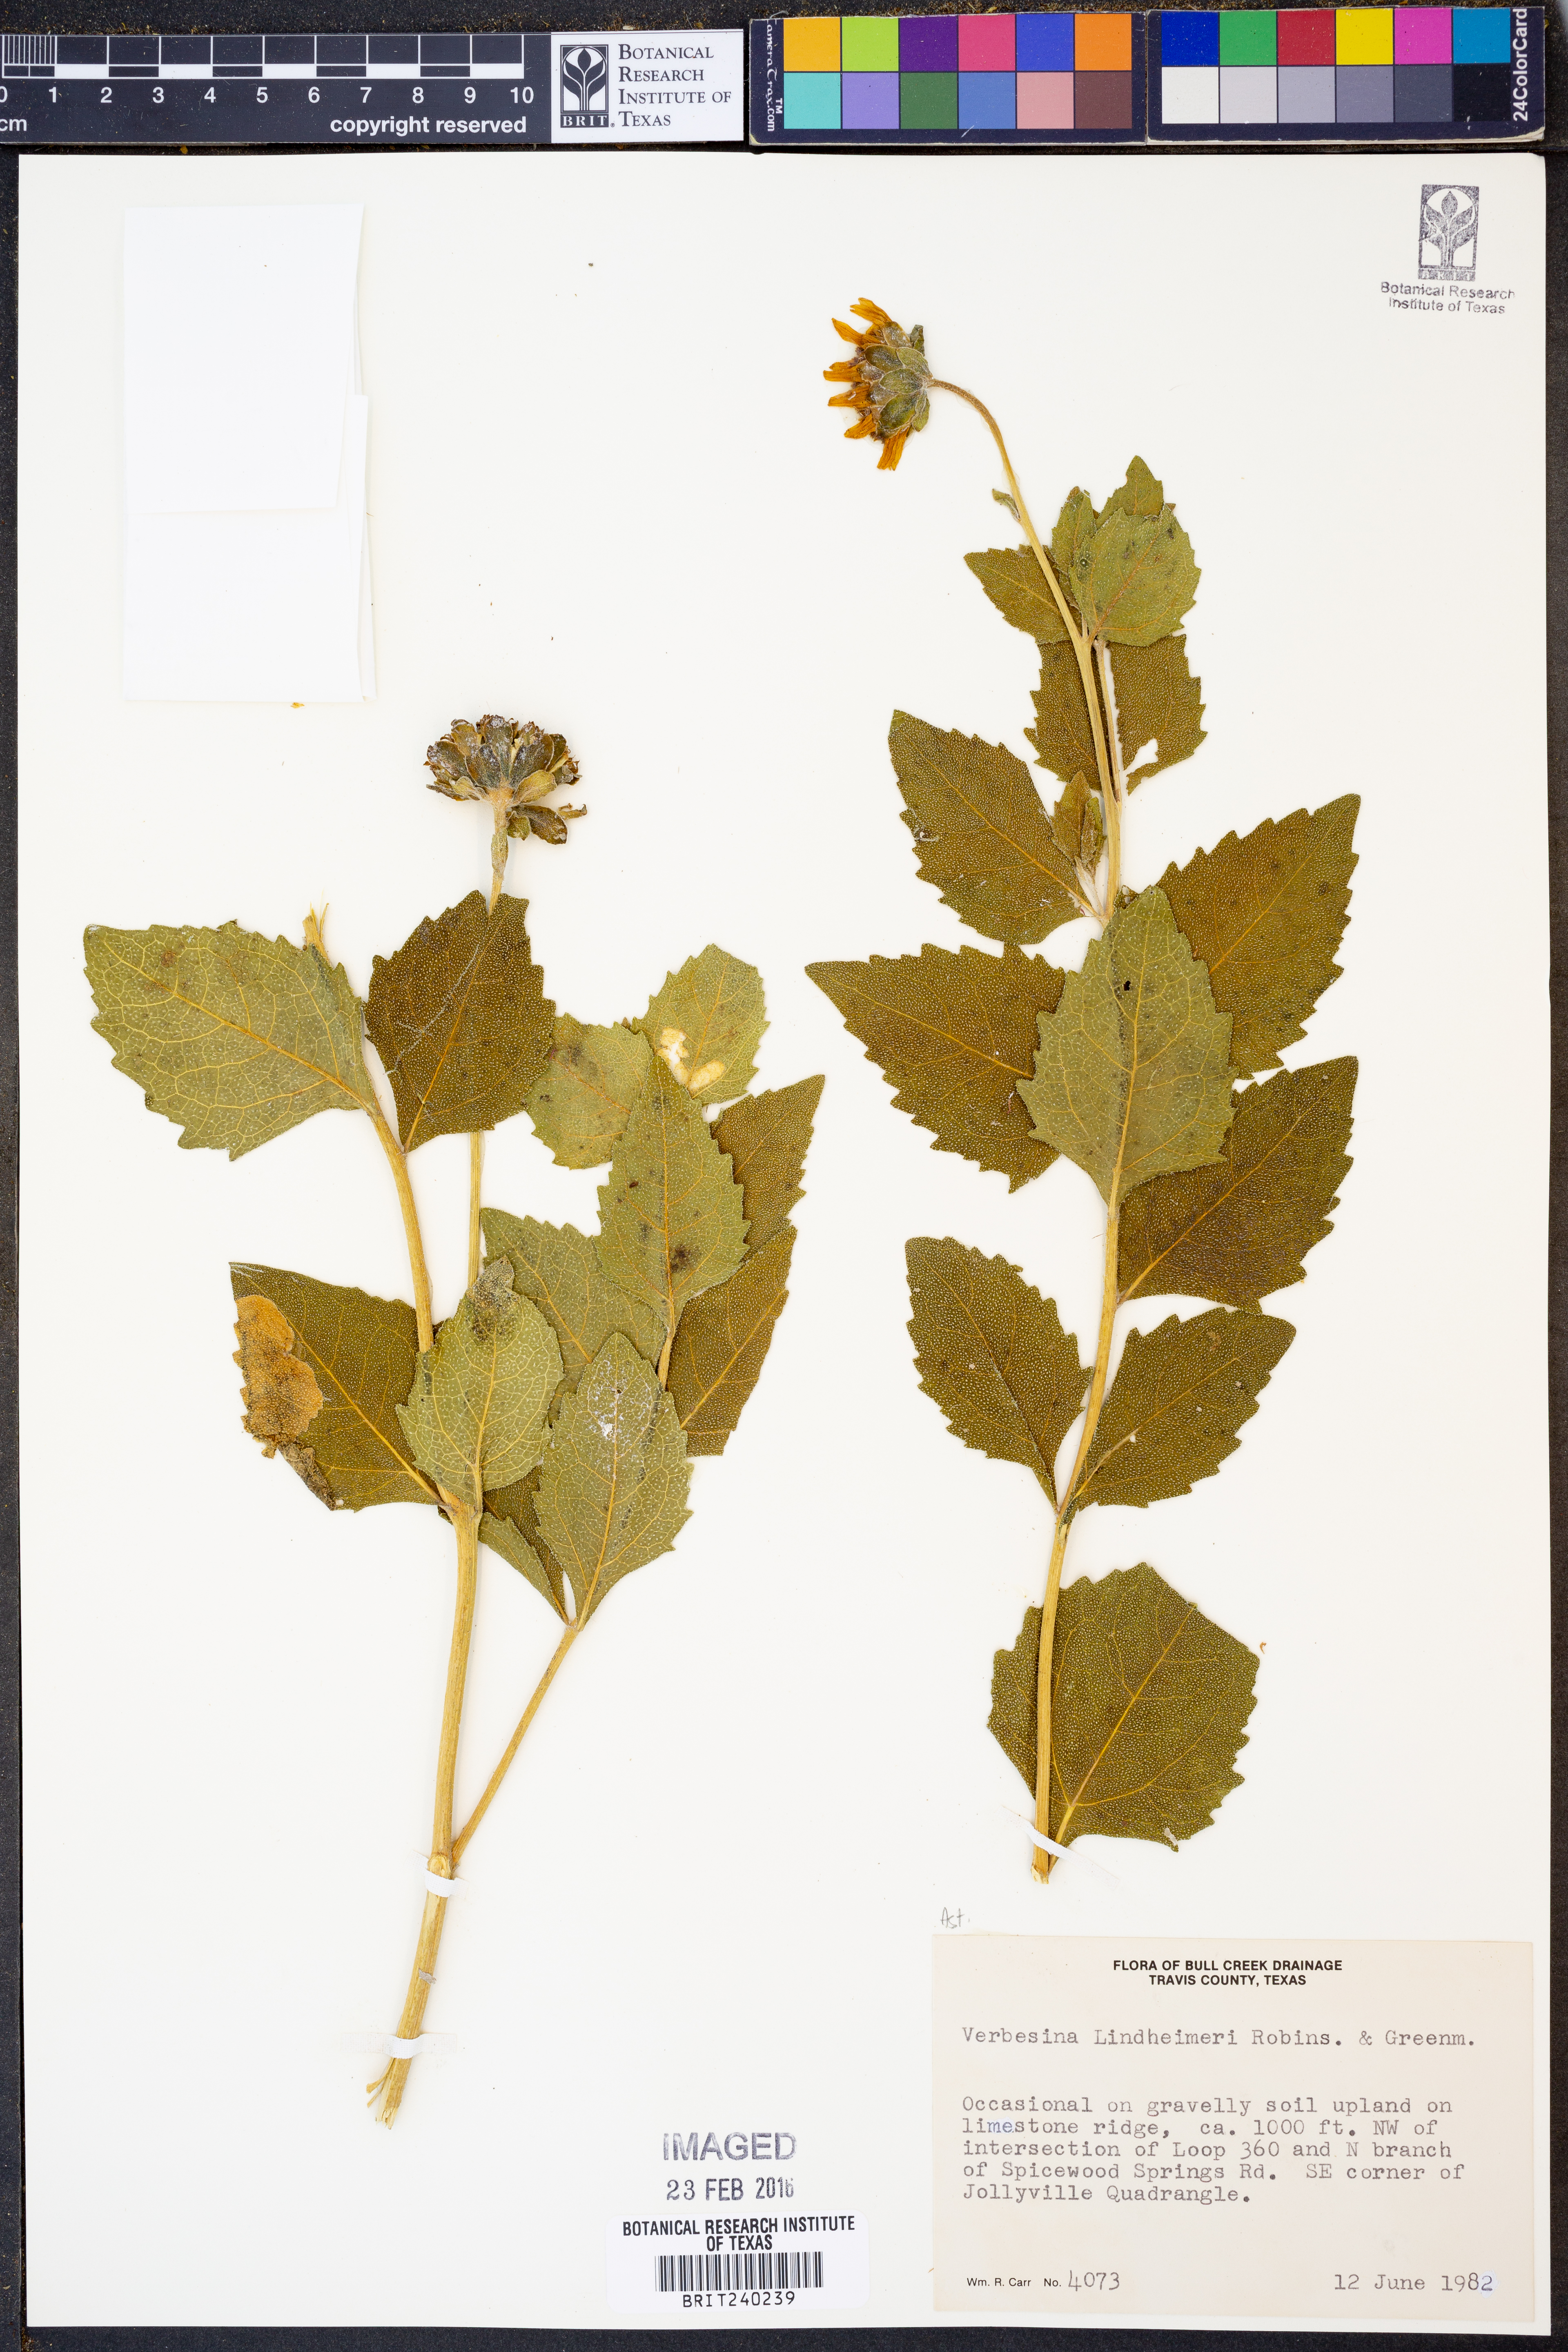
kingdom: Plantae
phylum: Tracheophyta
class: Magnoliopsida
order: Asterales
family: Asteraceae
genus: Verbesina
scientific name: Verbesina lindheimeri
